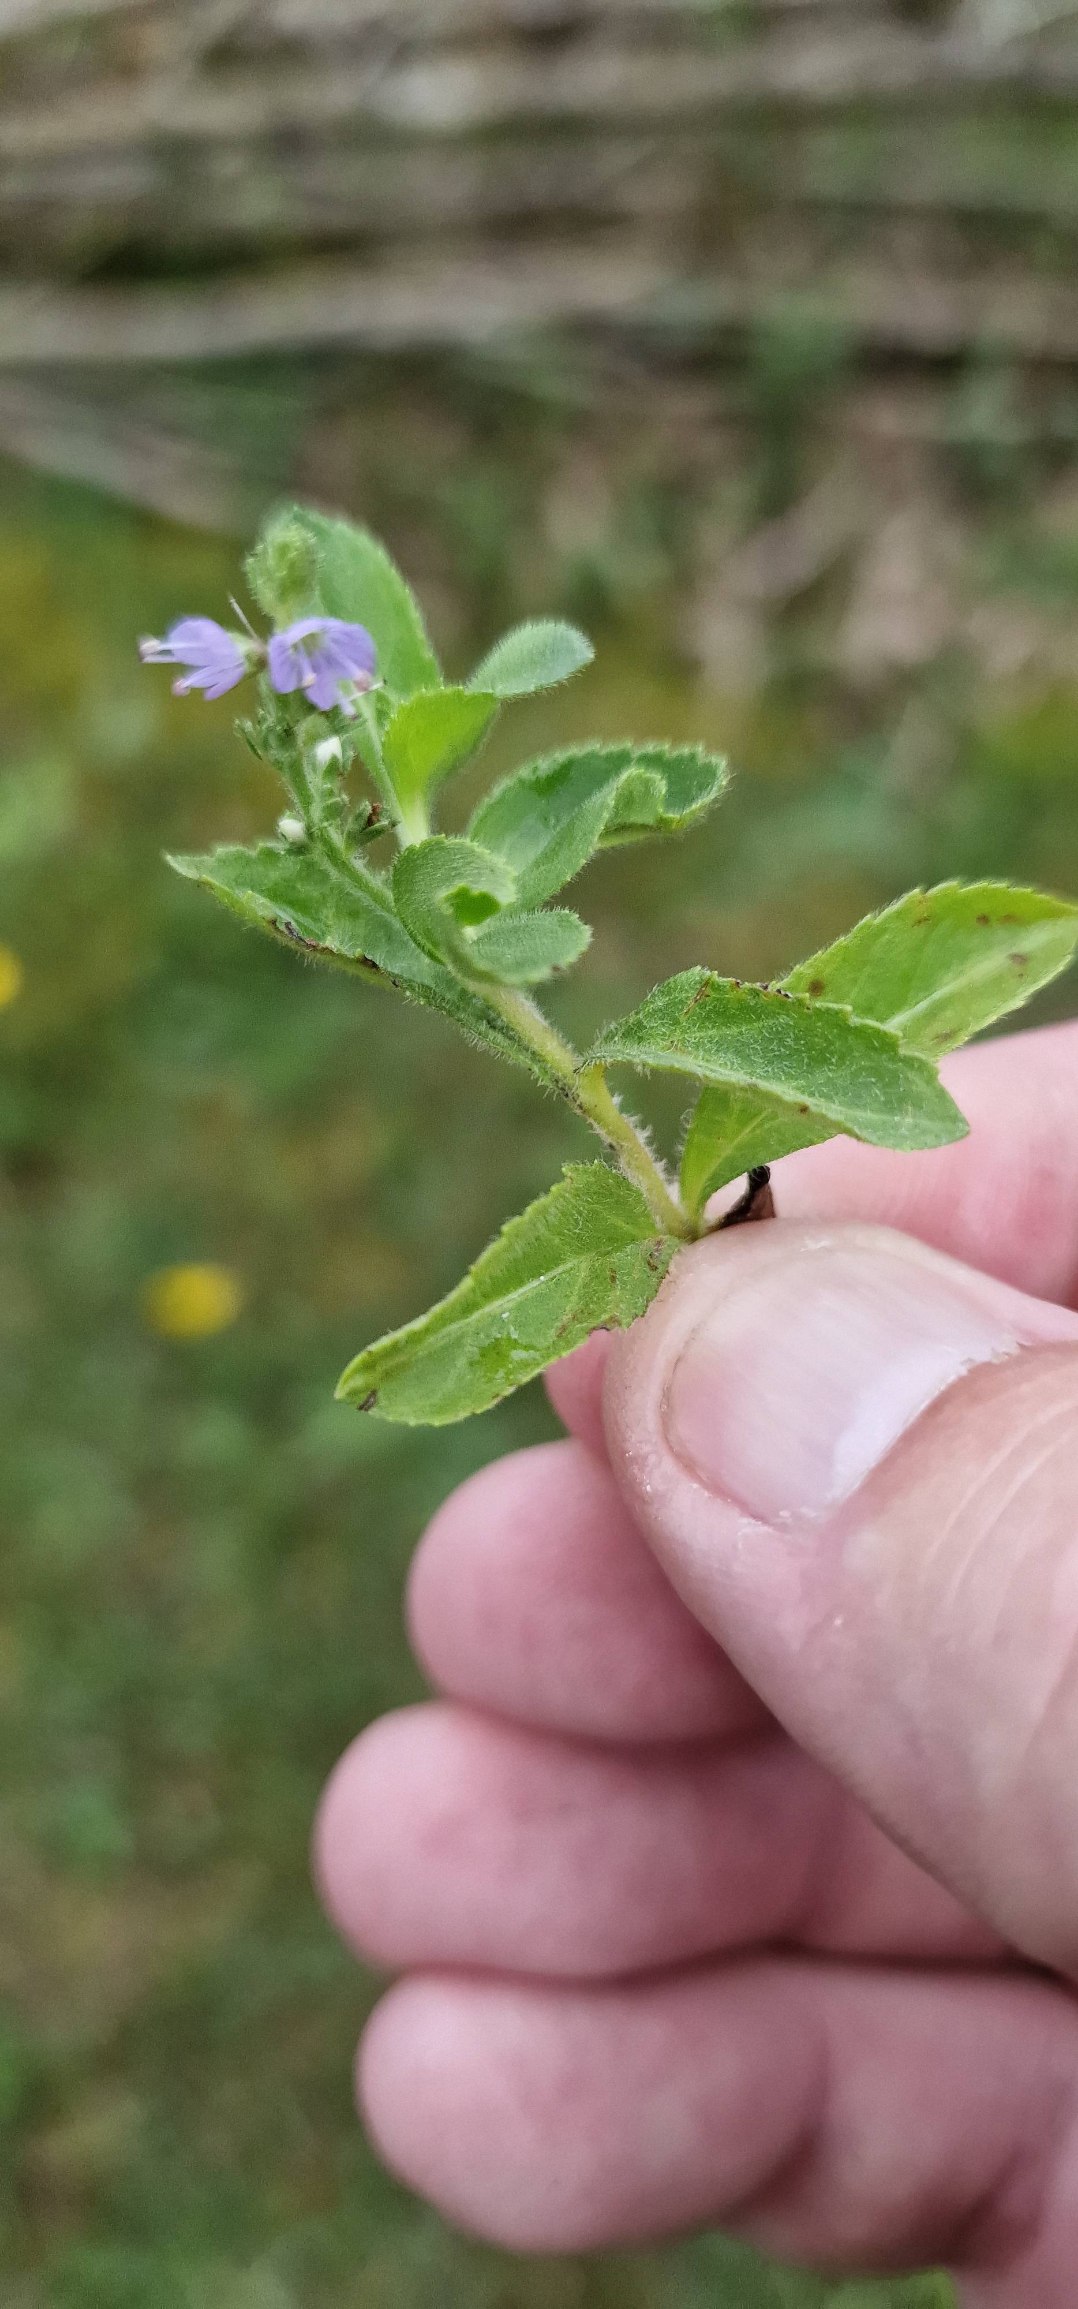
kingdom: Plantae
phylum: Tracheophyta
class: Magnoliopsida
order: Lamiales
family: Plantaginaceae
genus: Veronica
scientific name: Veronica officinalis
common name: Læge-ærenpris
